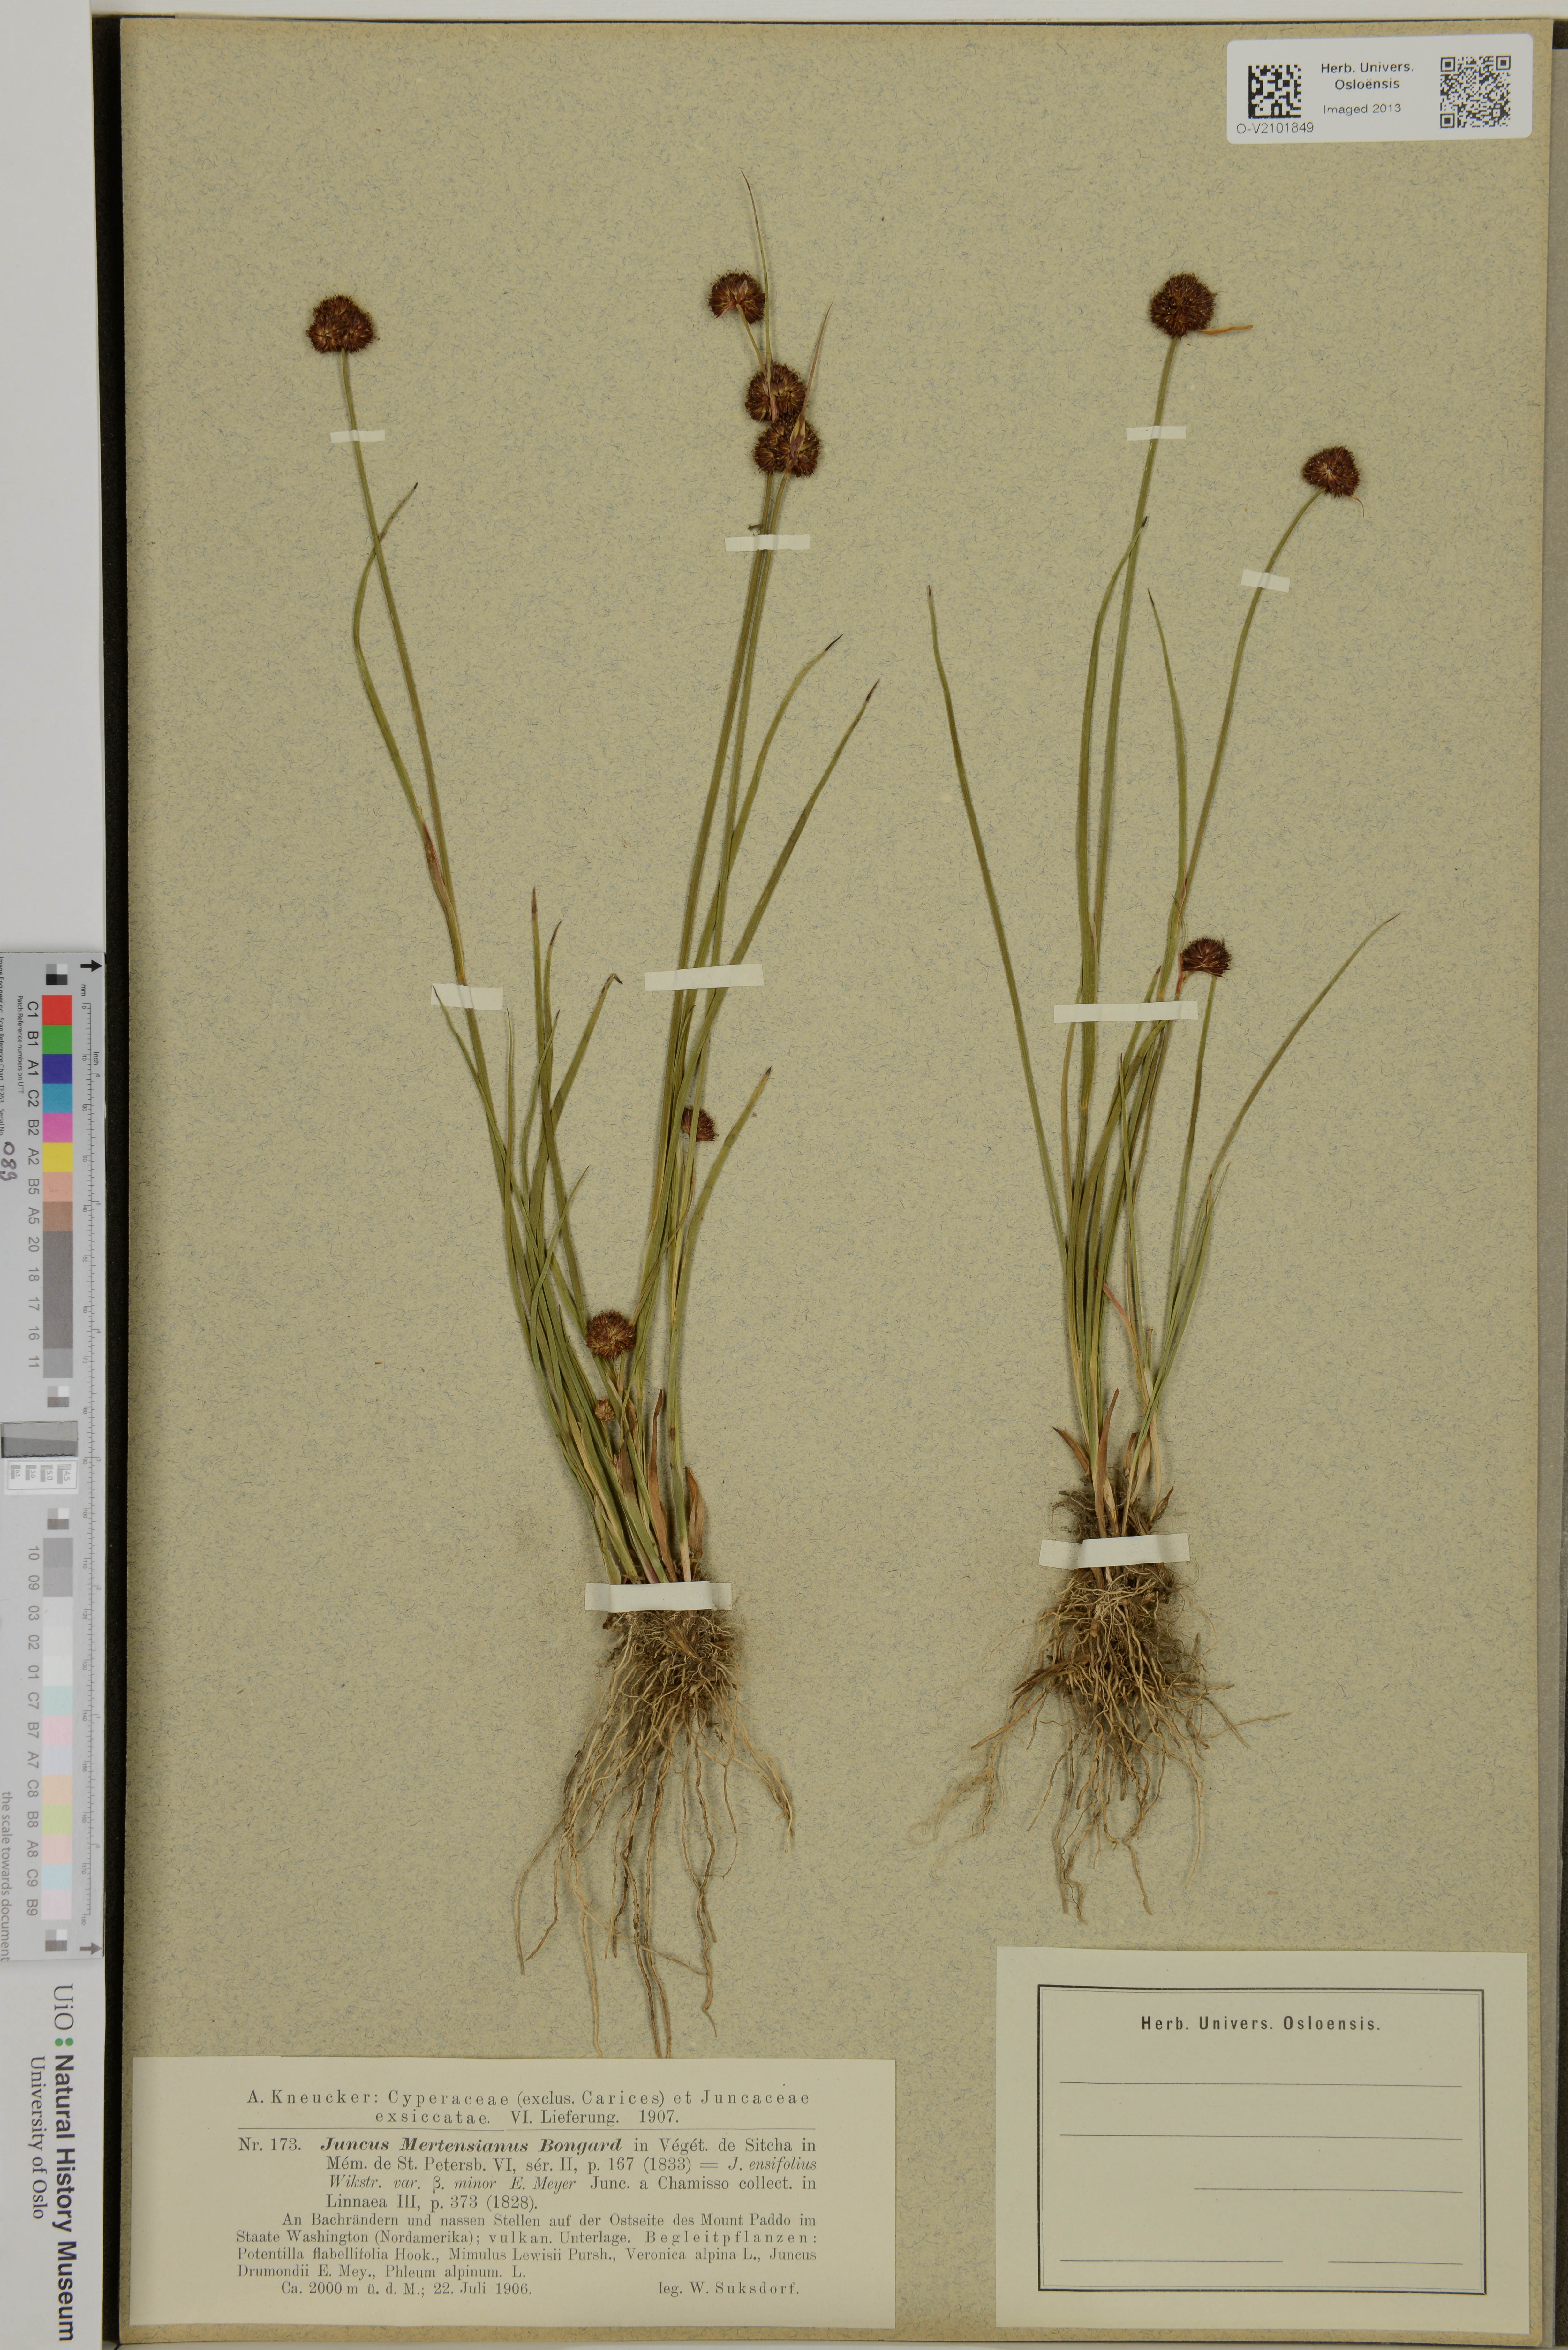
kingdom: Plantae
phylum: Tracheophyta
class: Liliopsida
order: Poales
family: Juncaceae
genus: Juncus
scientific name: Juncus mertensianus
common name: Merten's rush
